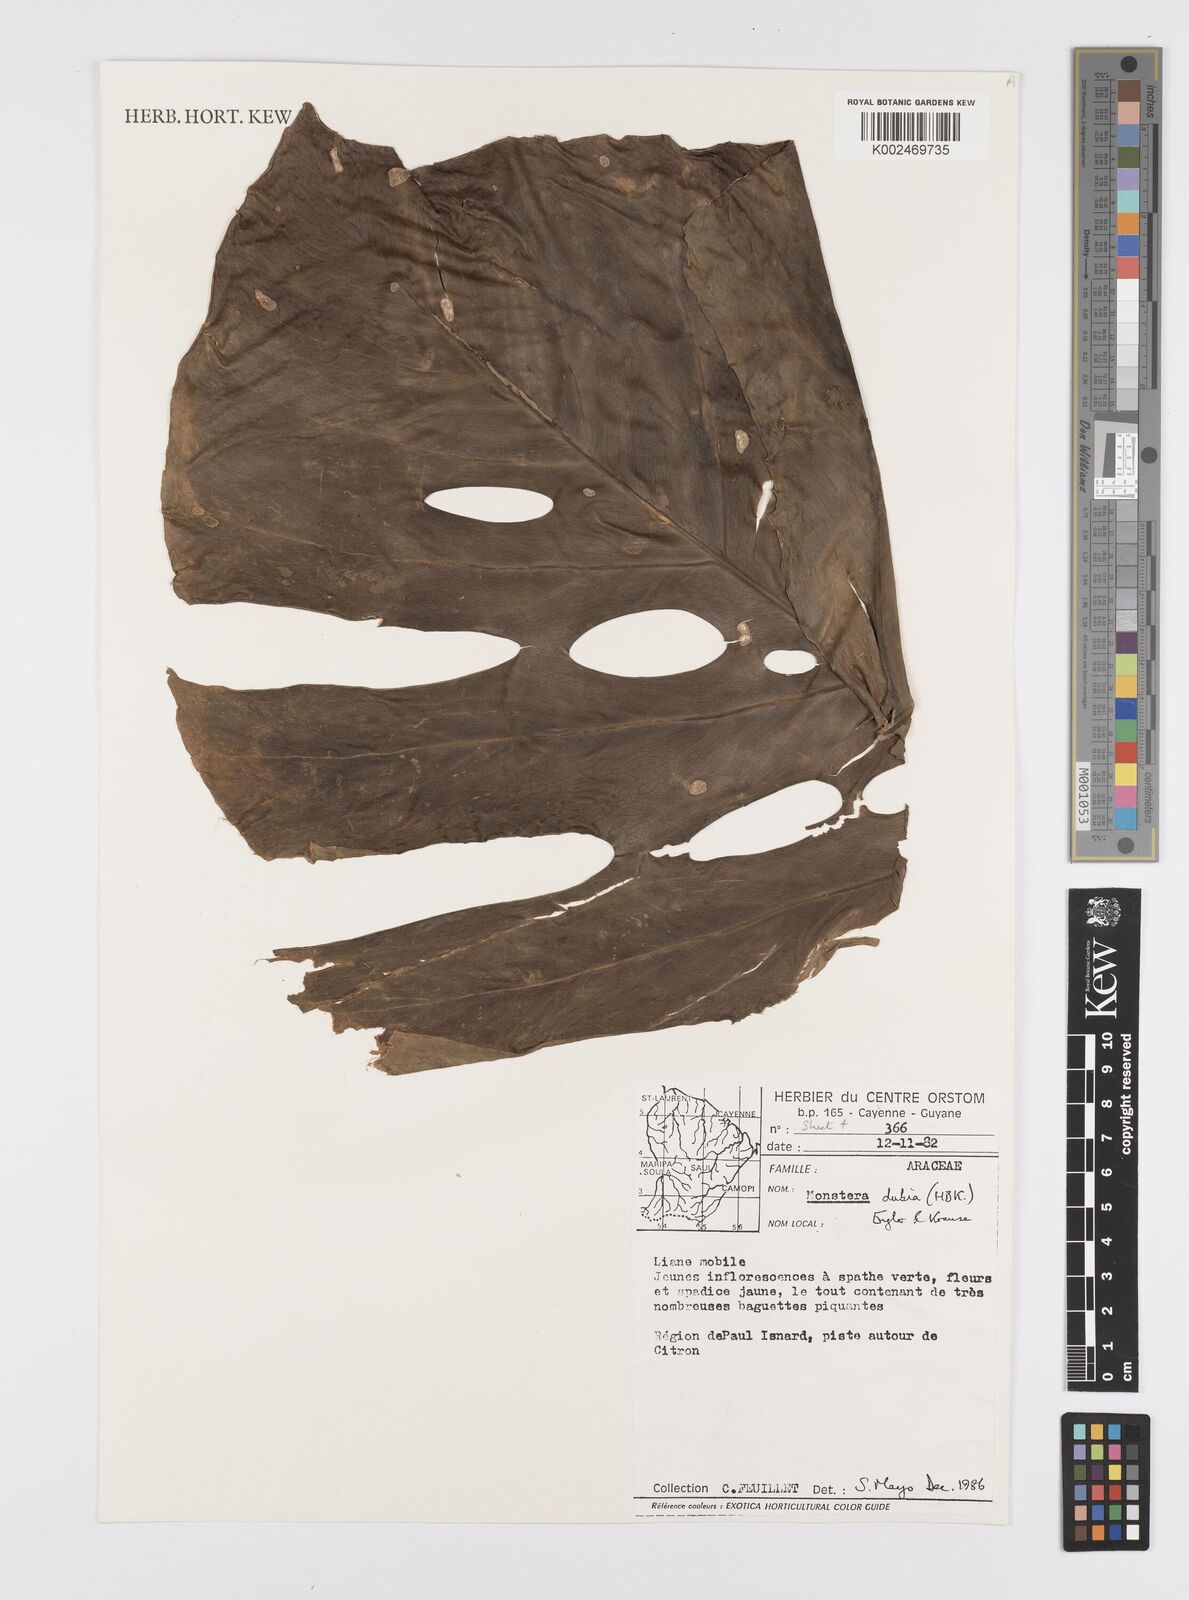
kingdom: Plantae
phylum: Tracheophyta
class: Liliopsida
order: Alismatales
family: Araceae
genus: Monstera
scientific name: Monstera dubia
